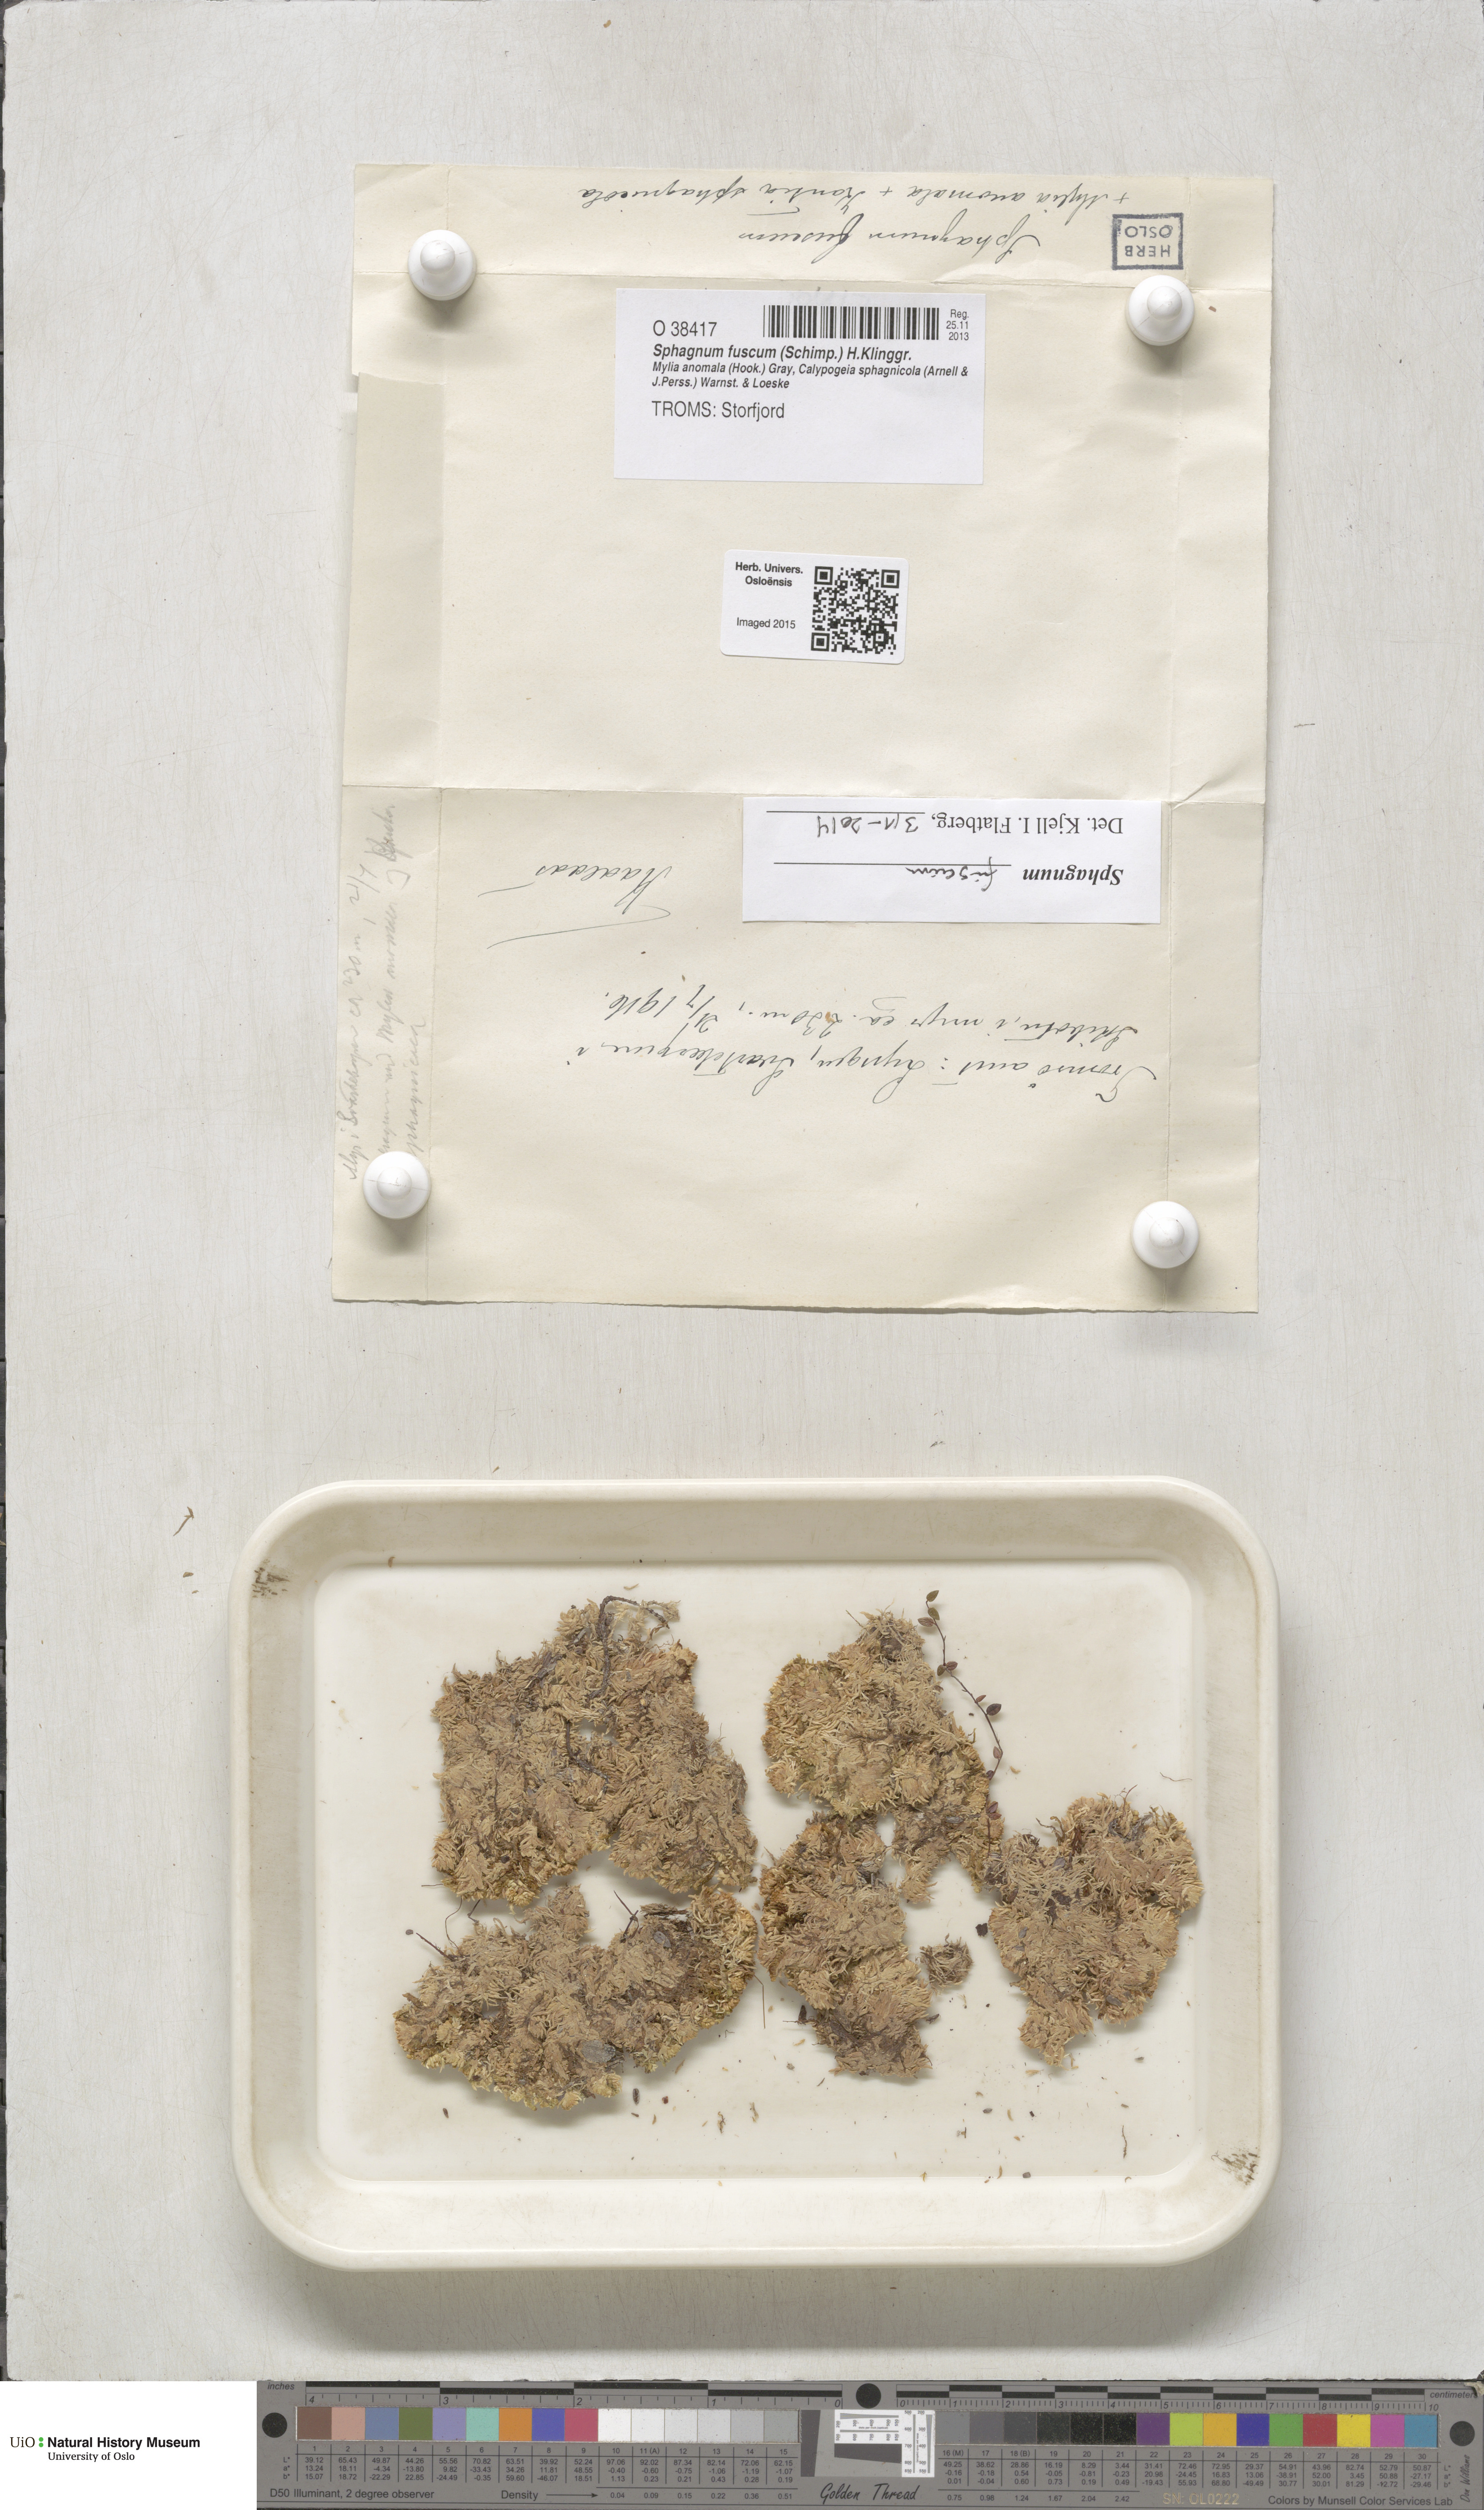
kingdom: Plantae
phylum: Bryophyta
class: Sphagnopsida
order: Sphagnales
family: Sphagnaceae
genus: Sphagnum
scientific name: Sphagnum fuscum
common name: Brown peat moss
